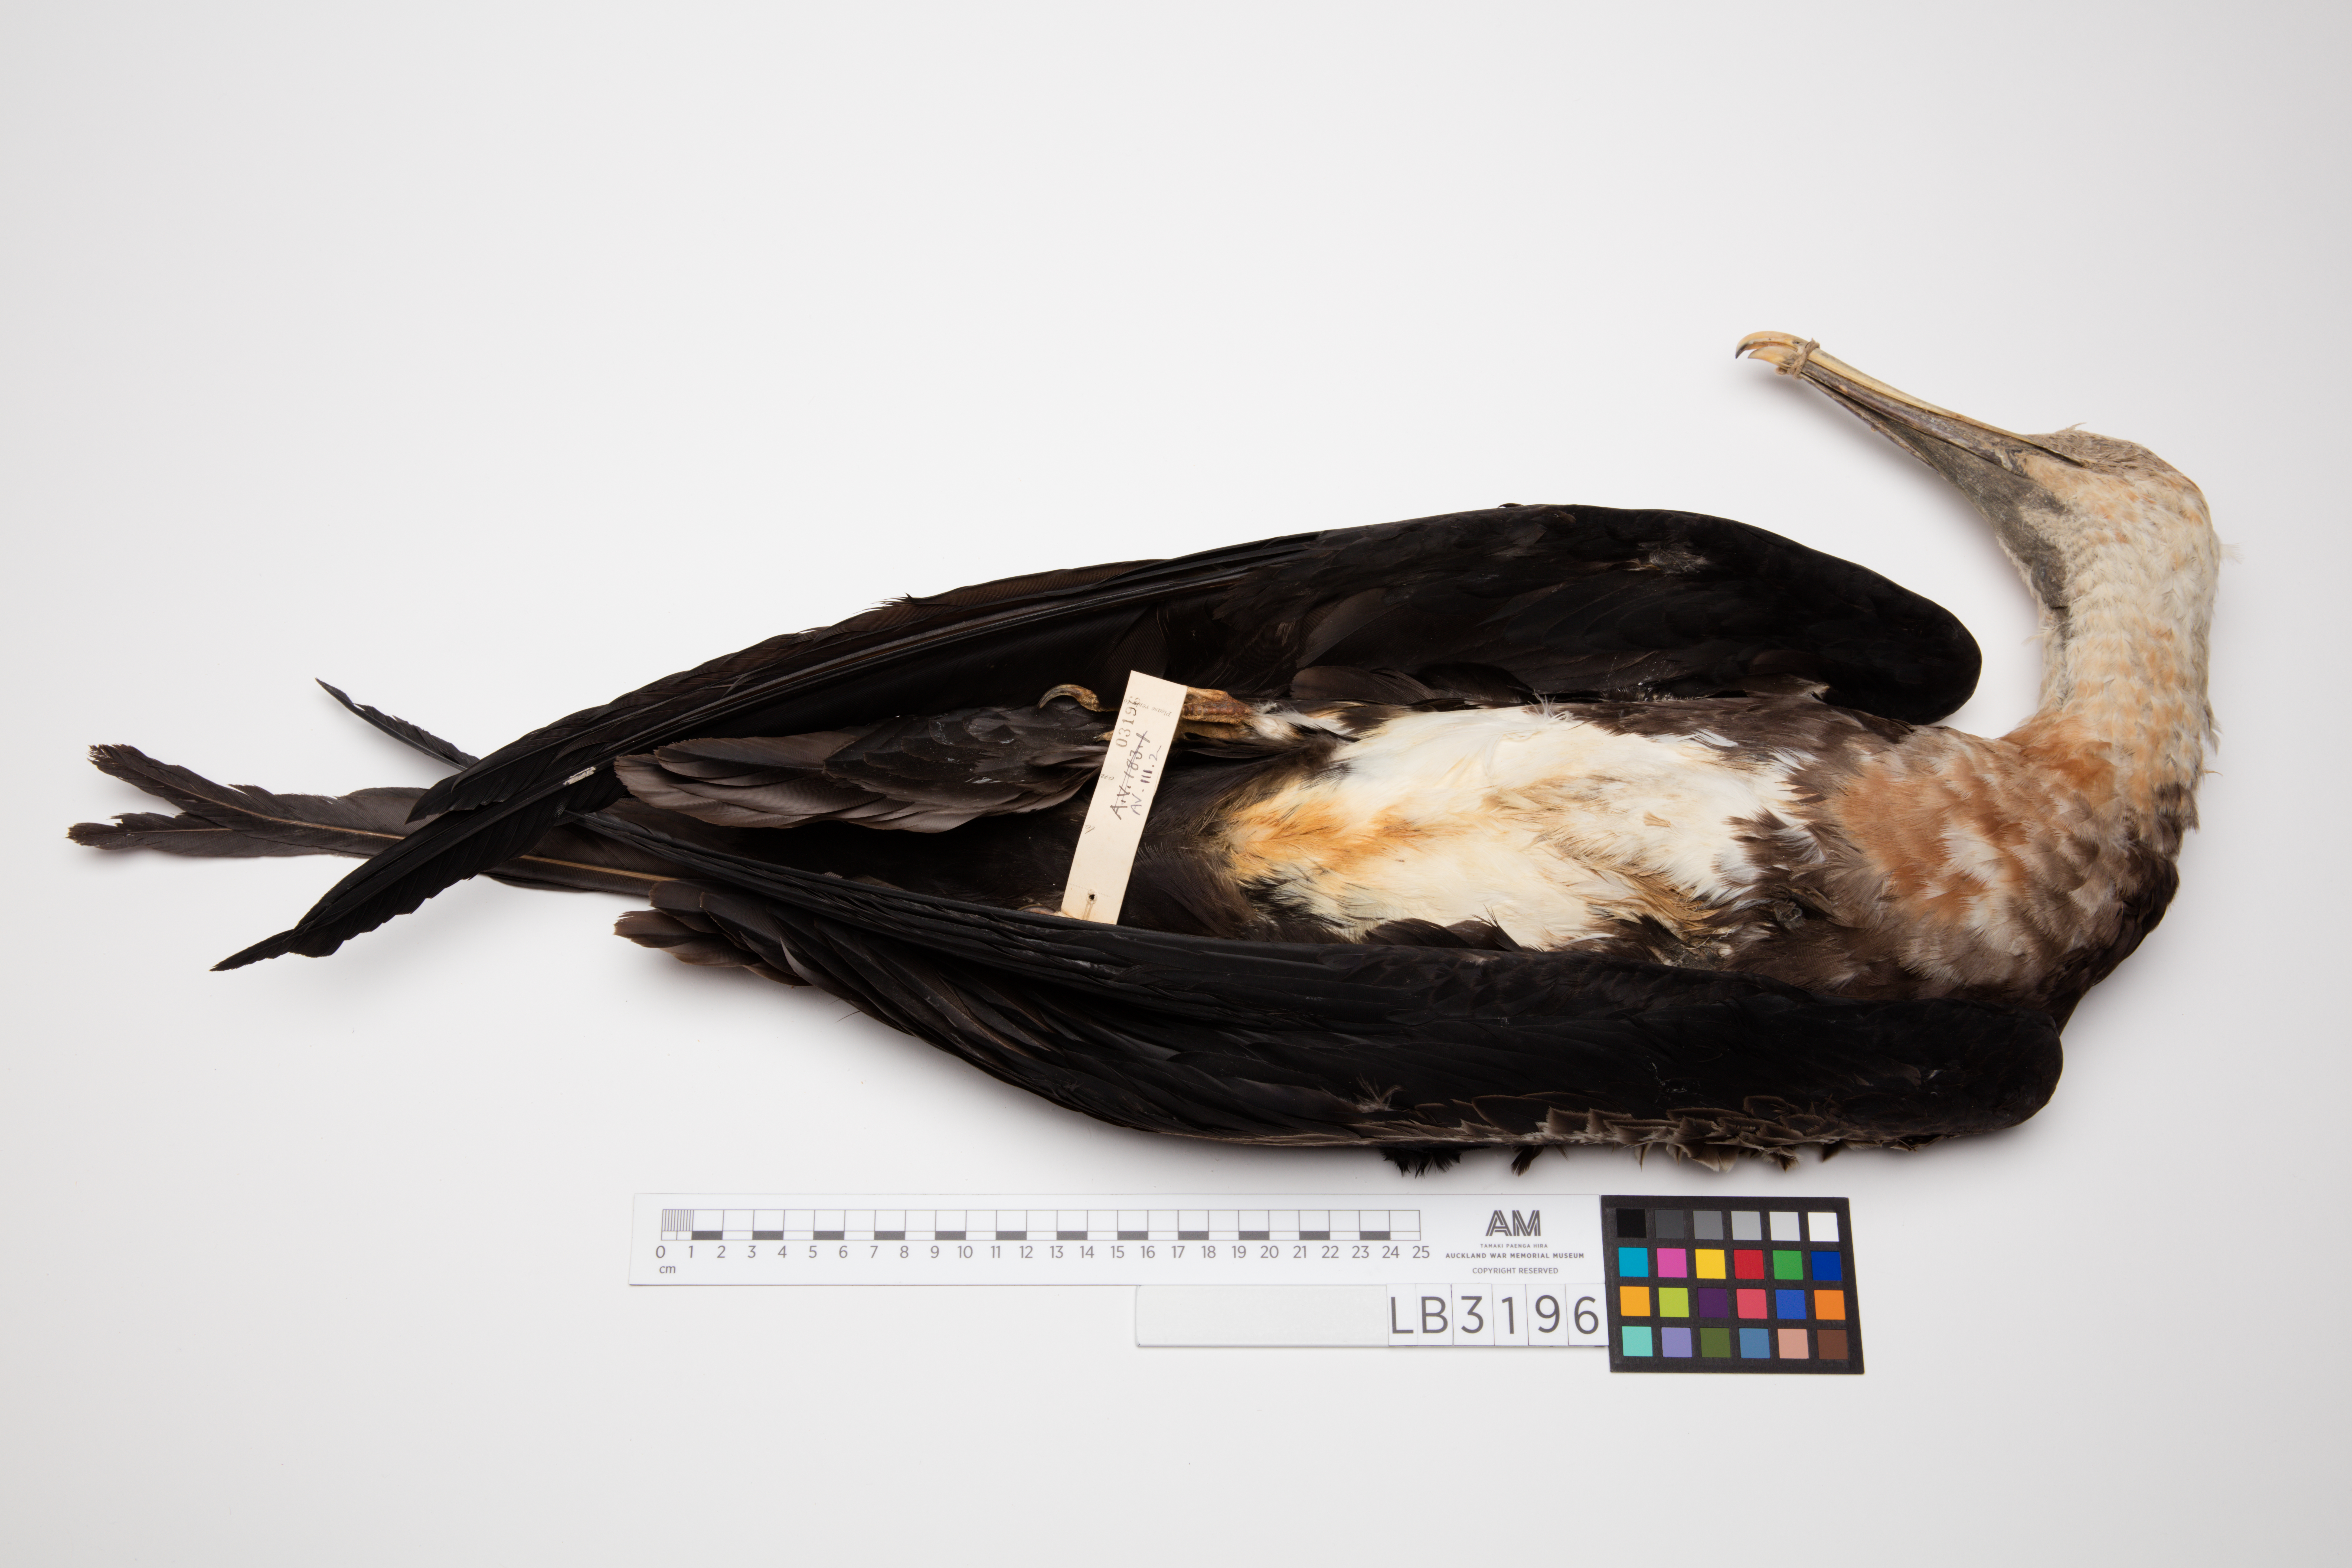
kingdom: Animalia
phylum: Chordata
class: Aves
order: Suliformes
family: Fregatidae
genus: Fregata
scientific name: Fregata minor
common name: Great frigatebird
